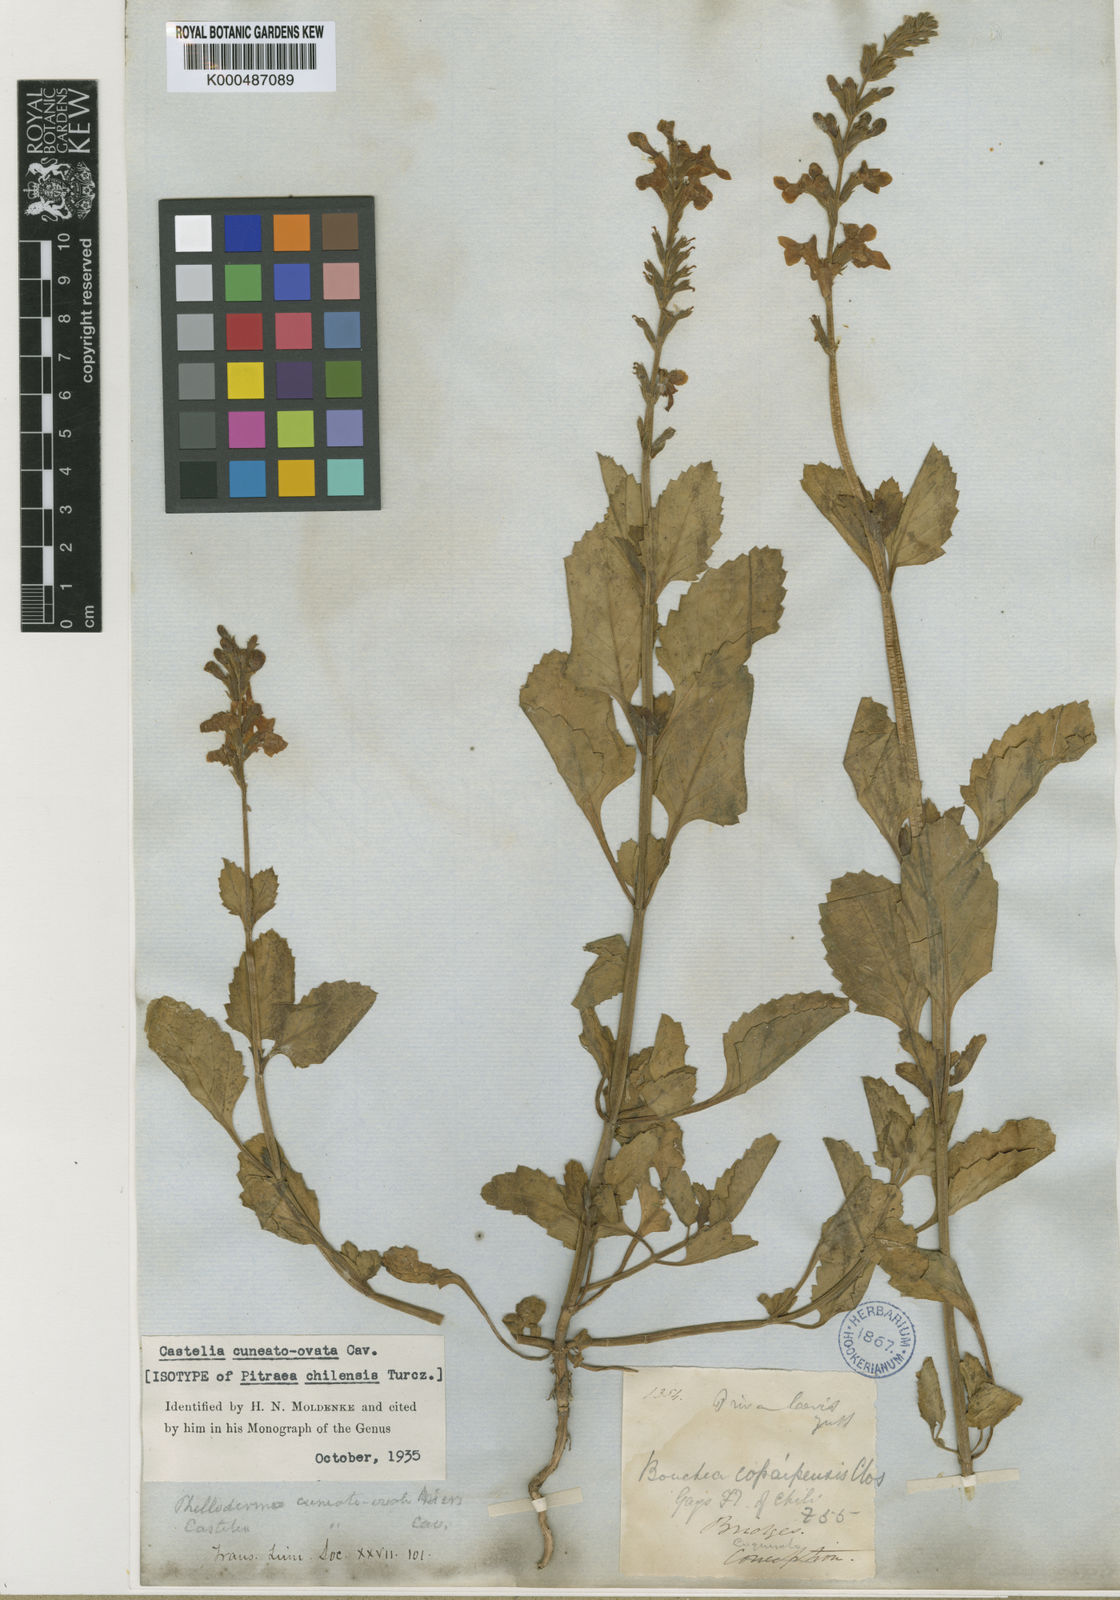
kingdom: Plantae
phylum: Tracheophyta
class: Magnoliopsida
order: Lamiales
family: Verbenaceae
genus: Pitraea
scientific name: Pitraea cuneato-ovata
